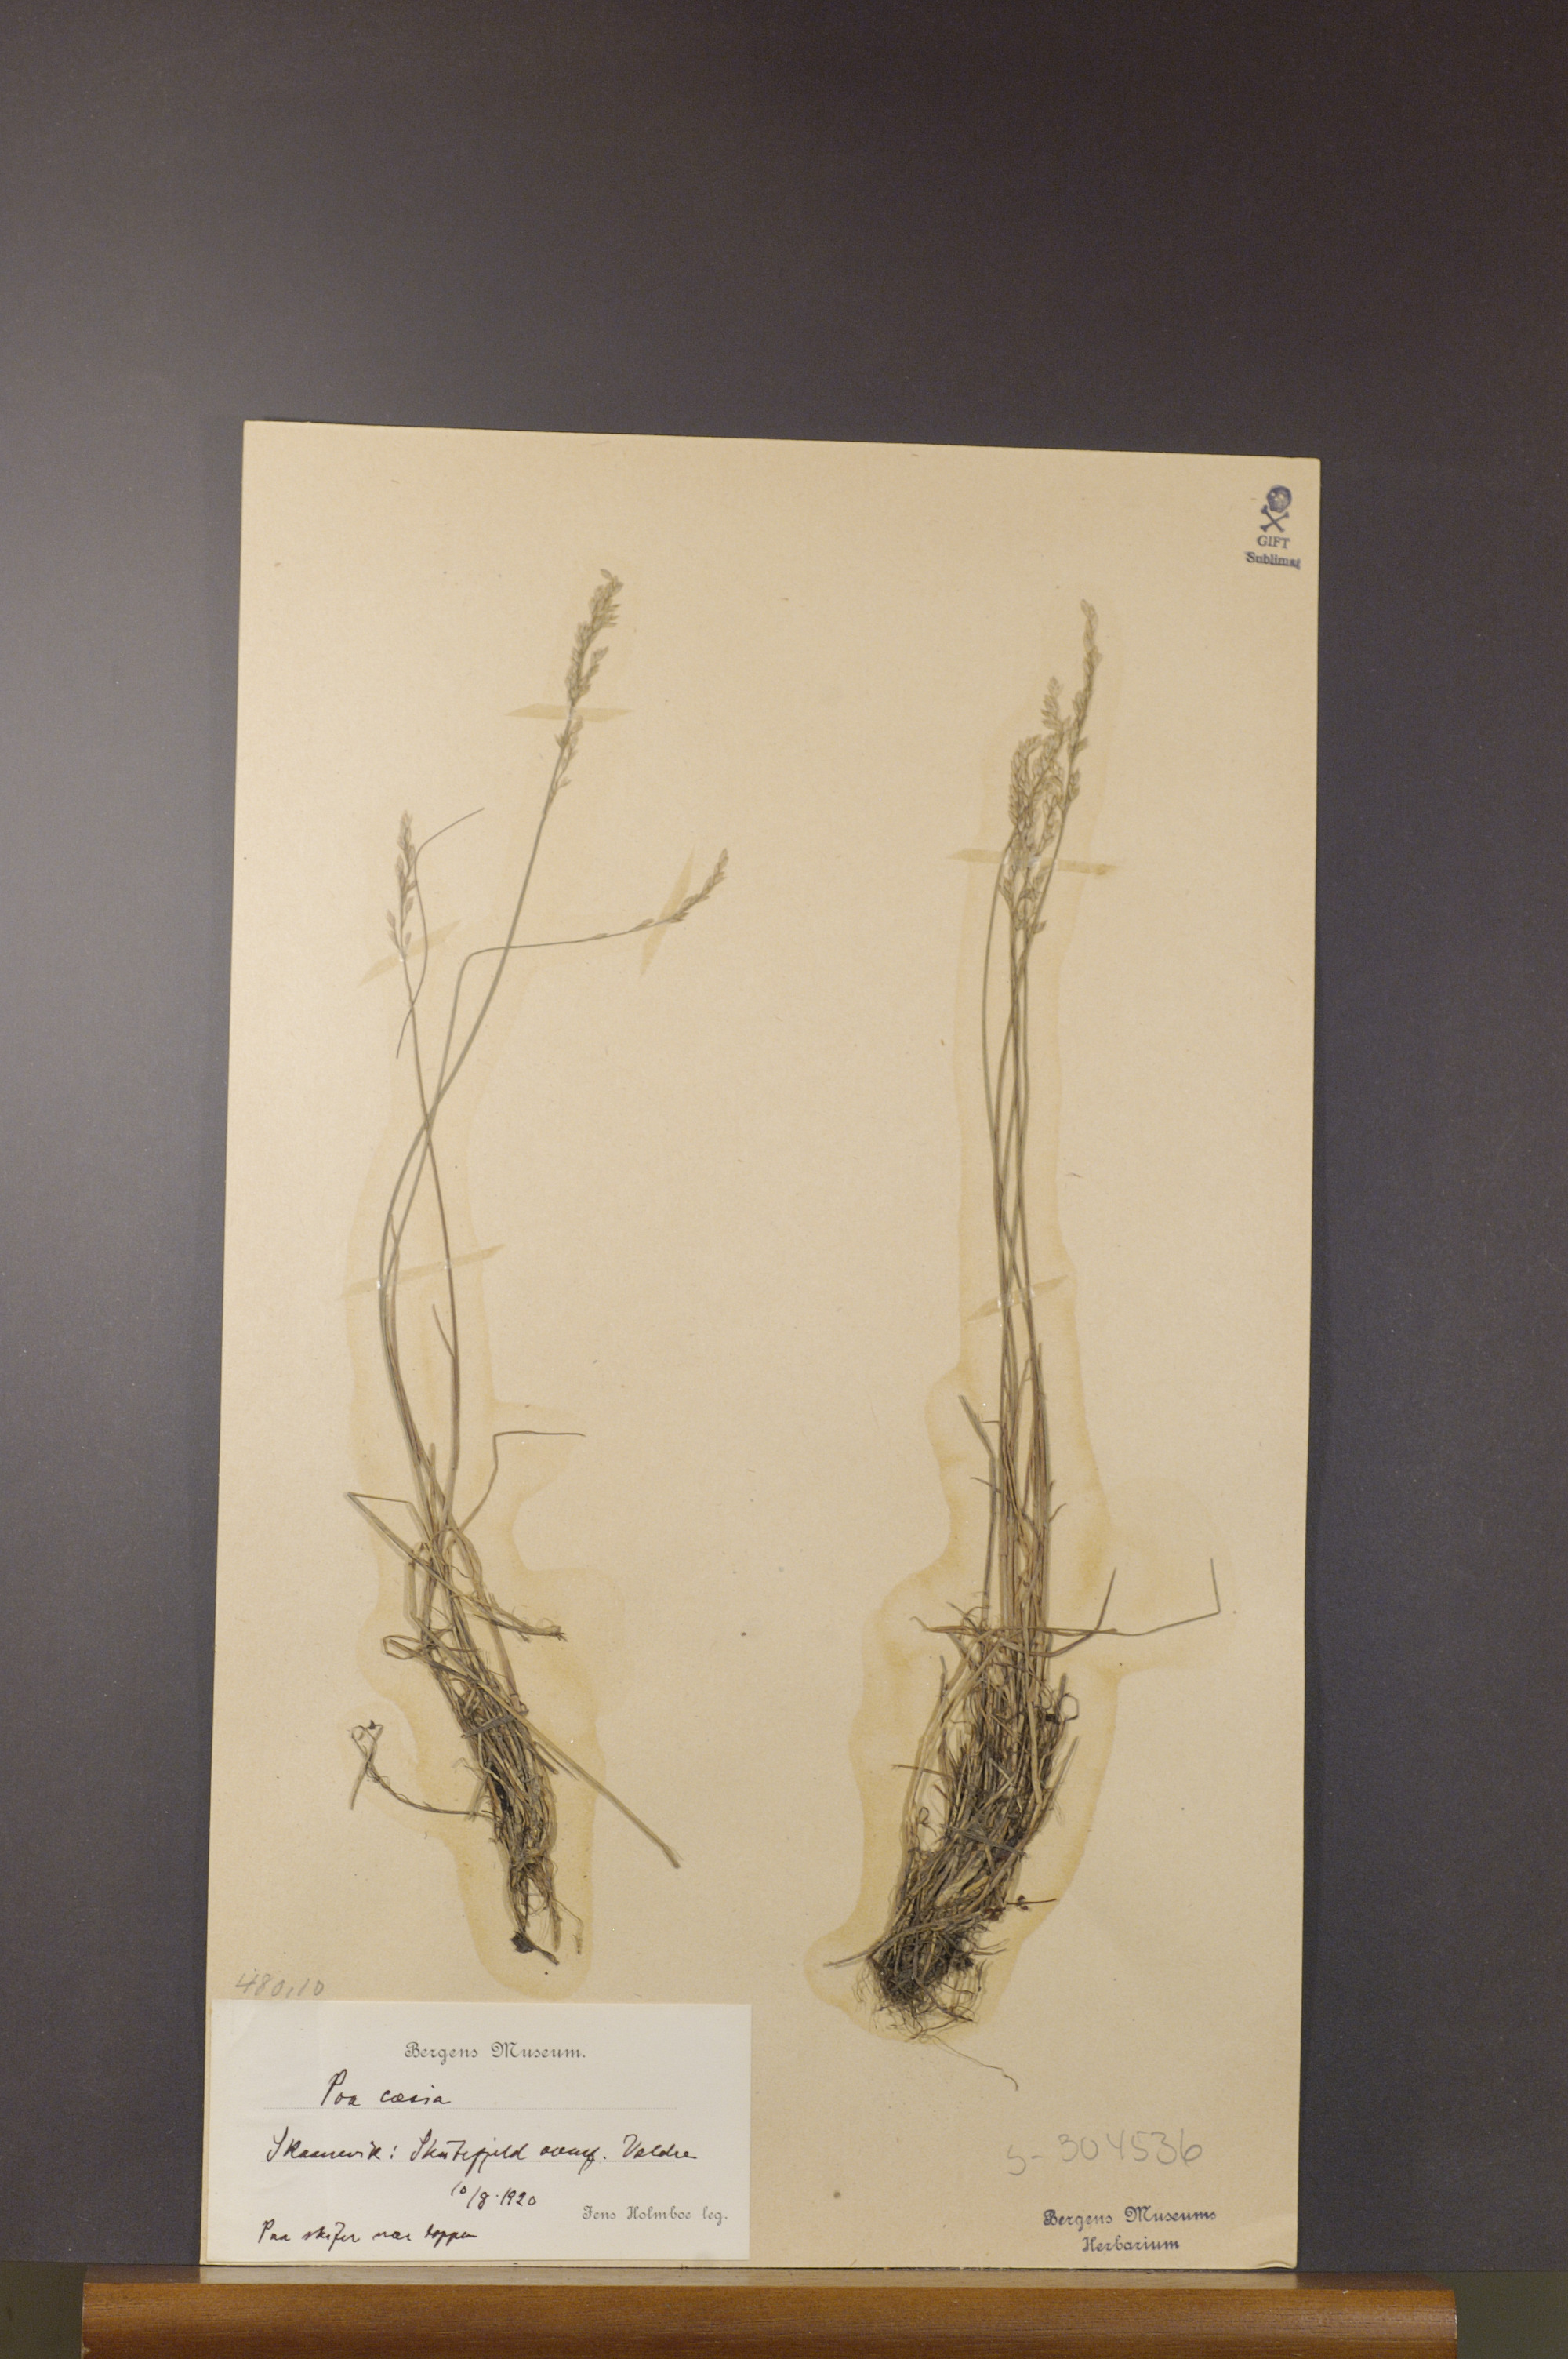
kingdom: Plantae
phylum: Tracheophyta
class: Liliopsida
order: Poales
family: Poaceae
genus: Poa
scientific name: Poa glauca
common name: Glaucous bluegrass
